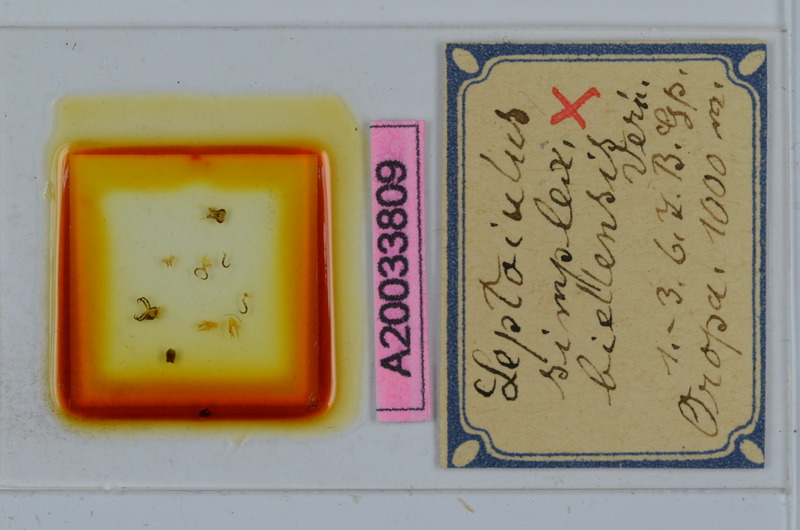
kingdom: Animalia
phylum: Arthropoda
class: Diplopoda
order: Julida
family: Julidae
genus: Leptoiulus
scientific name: Leptoiulus simplex
